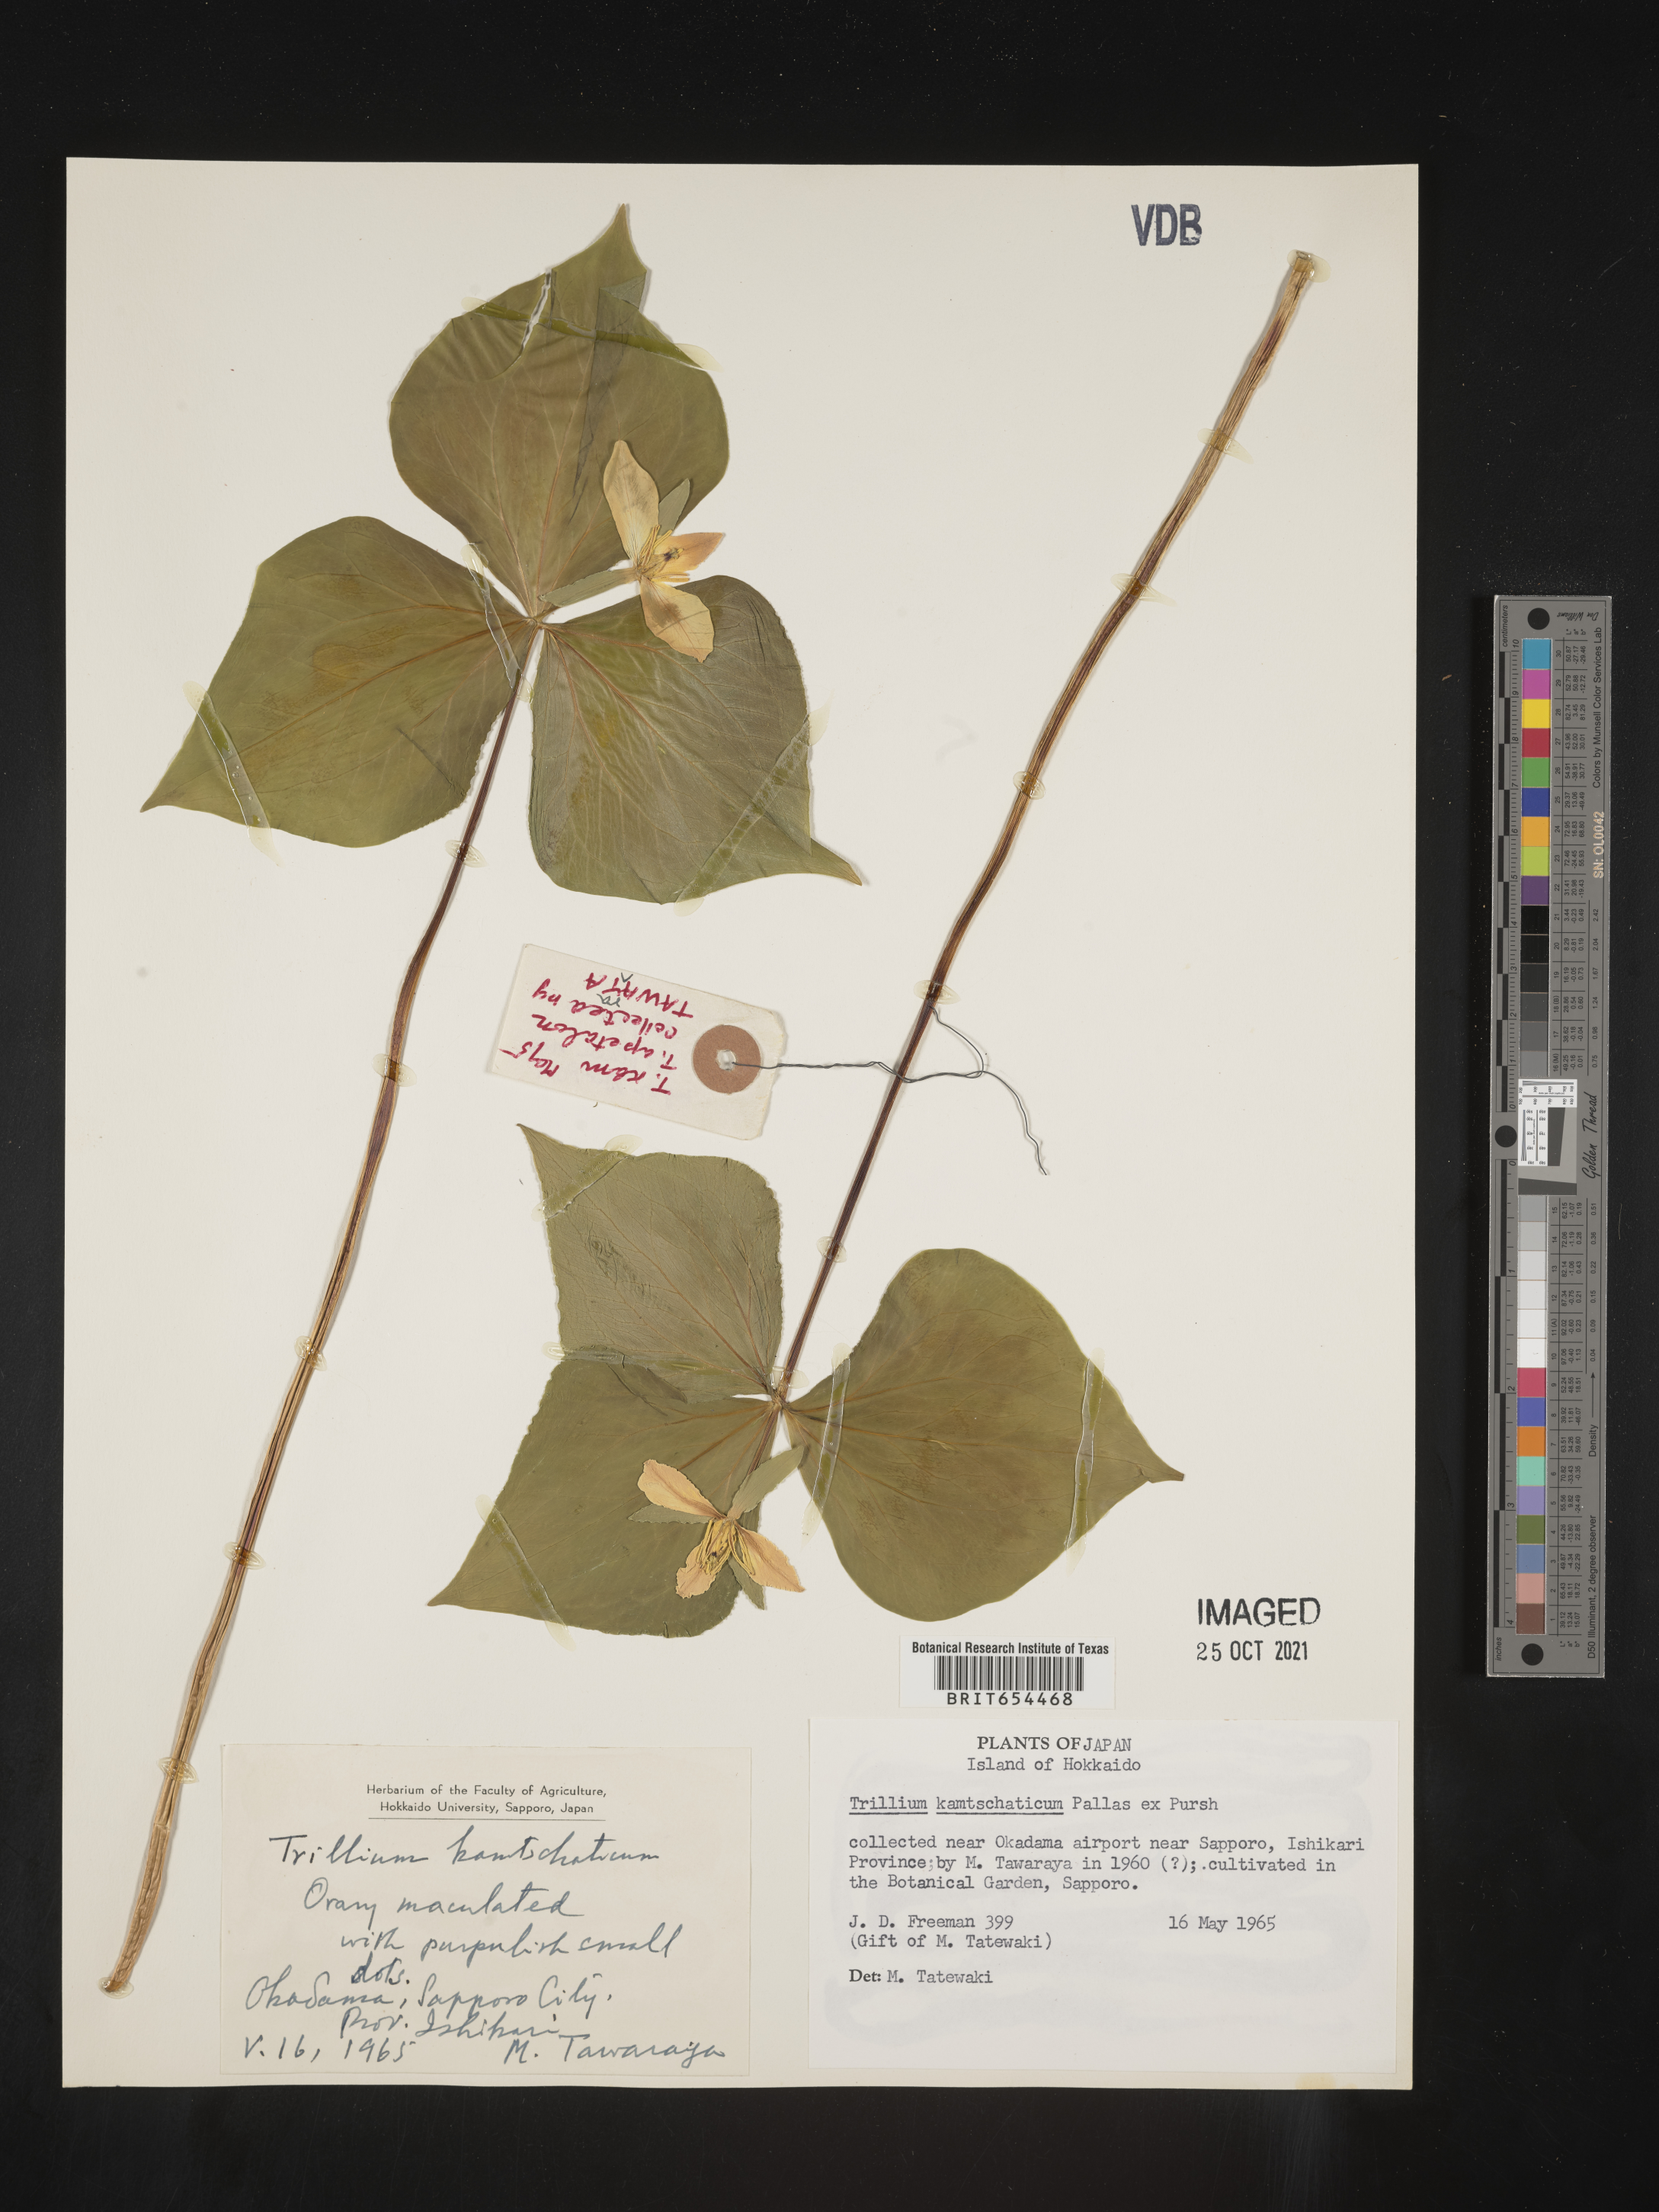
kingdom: Plantae
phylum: Tracheophyta
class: Liliopsida
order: Liliales
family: Melanthiaceae
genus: Trillium
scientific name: Trillium
